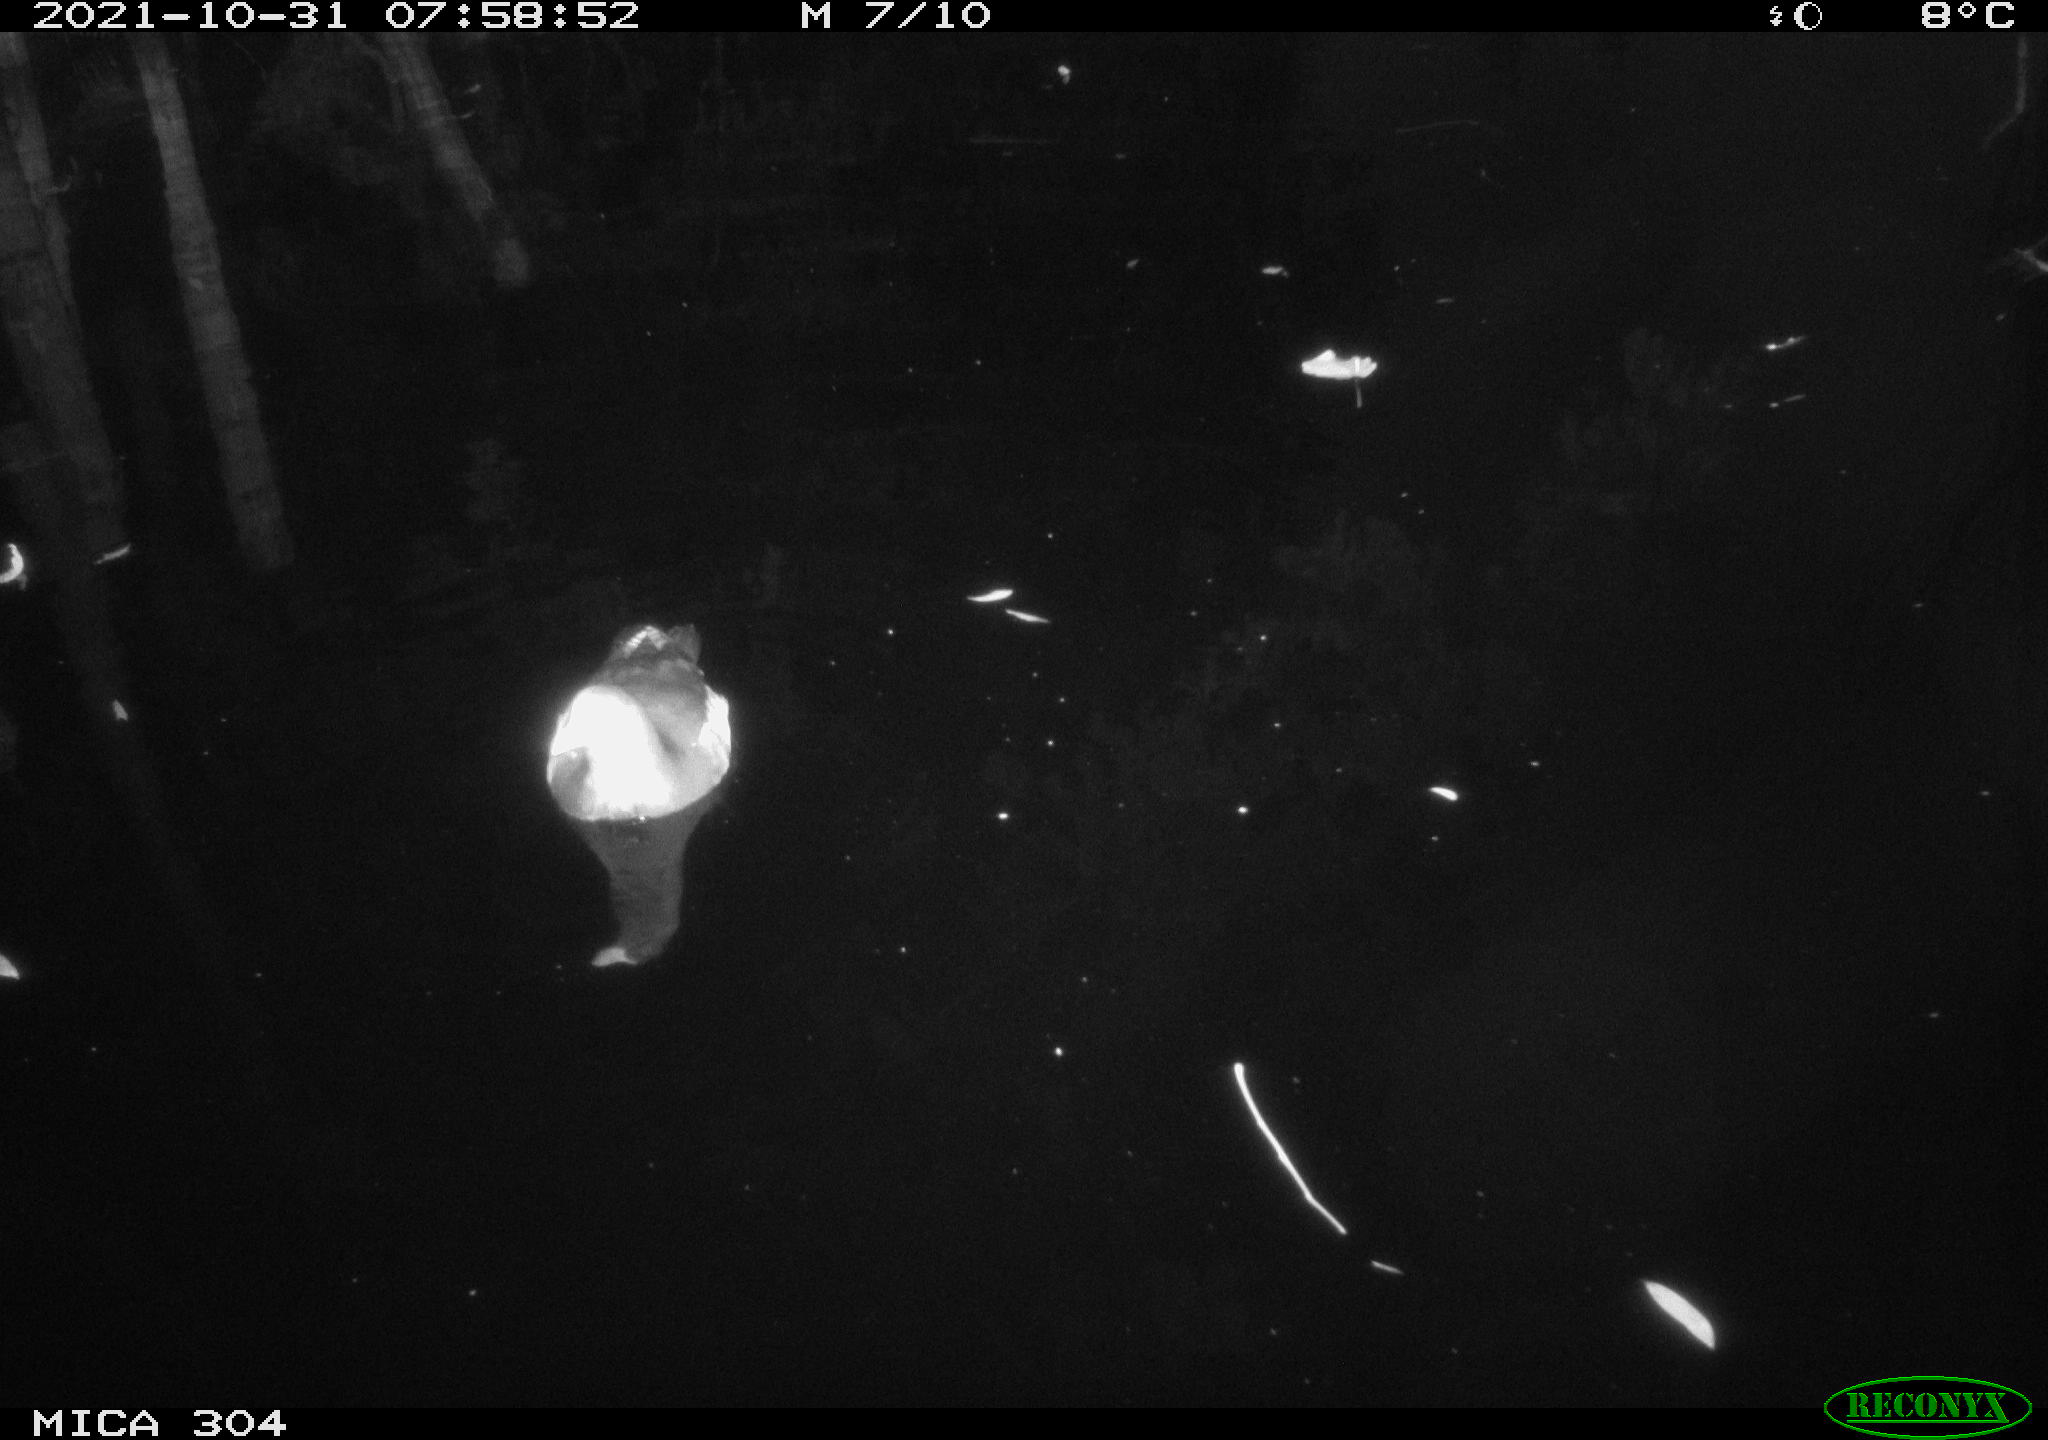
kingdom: Animalia
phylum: Chordata
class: Aves
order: Gruiformes
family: Rallidae
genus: Gallinula
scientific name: Gallinula chloropus
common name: Common moorhen
